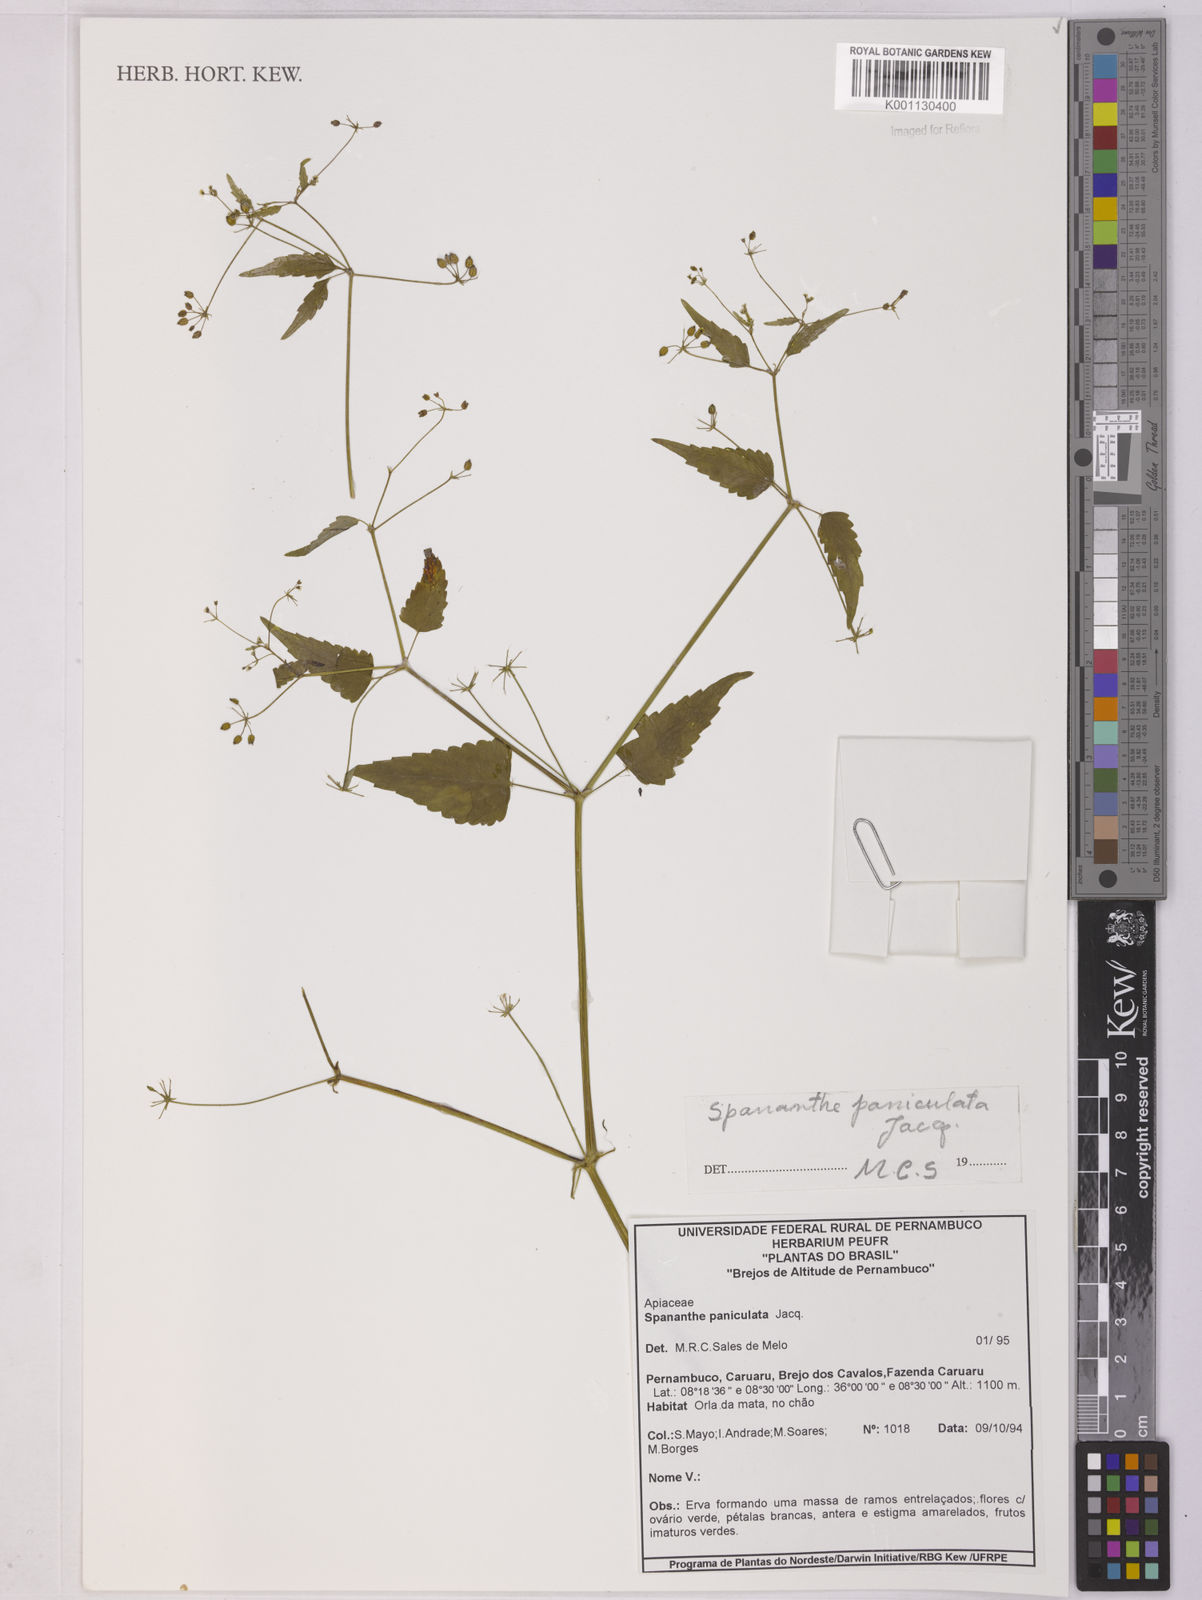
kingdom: Plantae
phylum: Tracheophyta
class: Magnoliopsida
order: Apiales
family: Apiaceae
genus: Spananthe
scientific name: Spananthe paniculata
